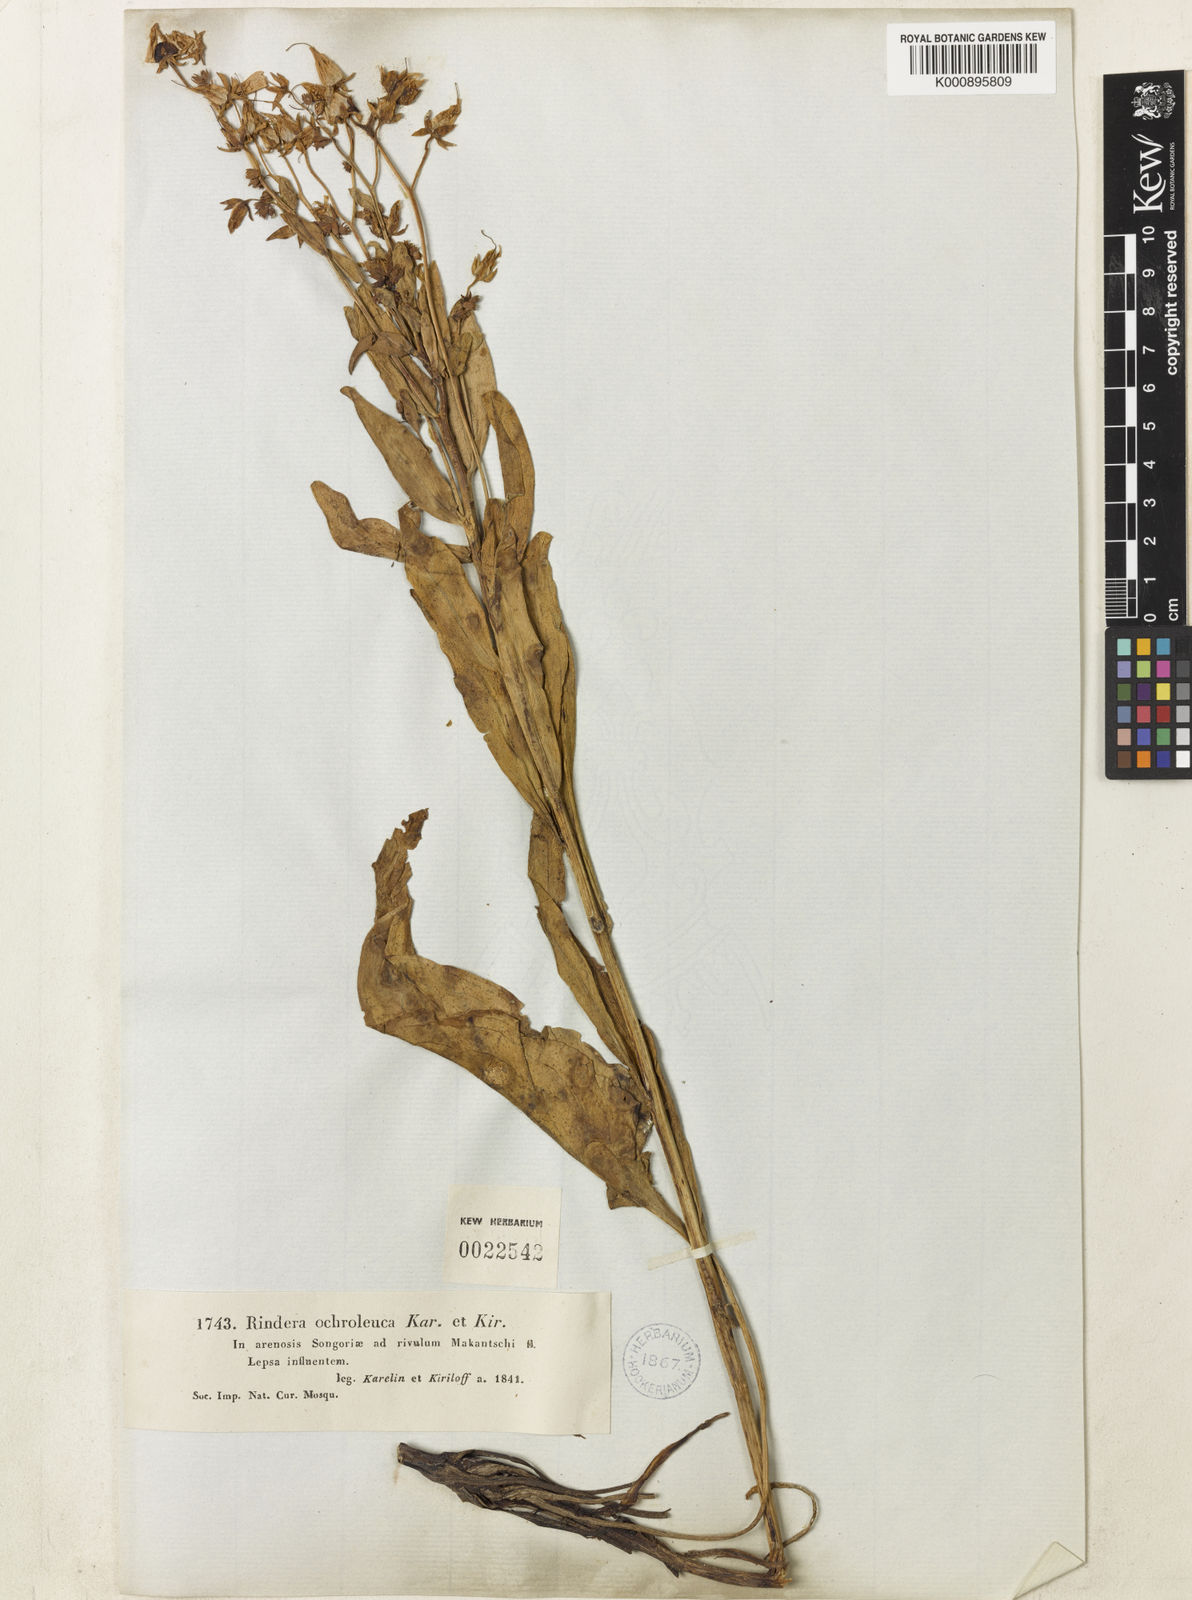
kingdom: Plantae
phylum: Tracheophyta
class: Magnoliopsida
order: Boraginales
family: Boraginaceae
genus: Rindera
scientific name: Rindera ochroleuca
